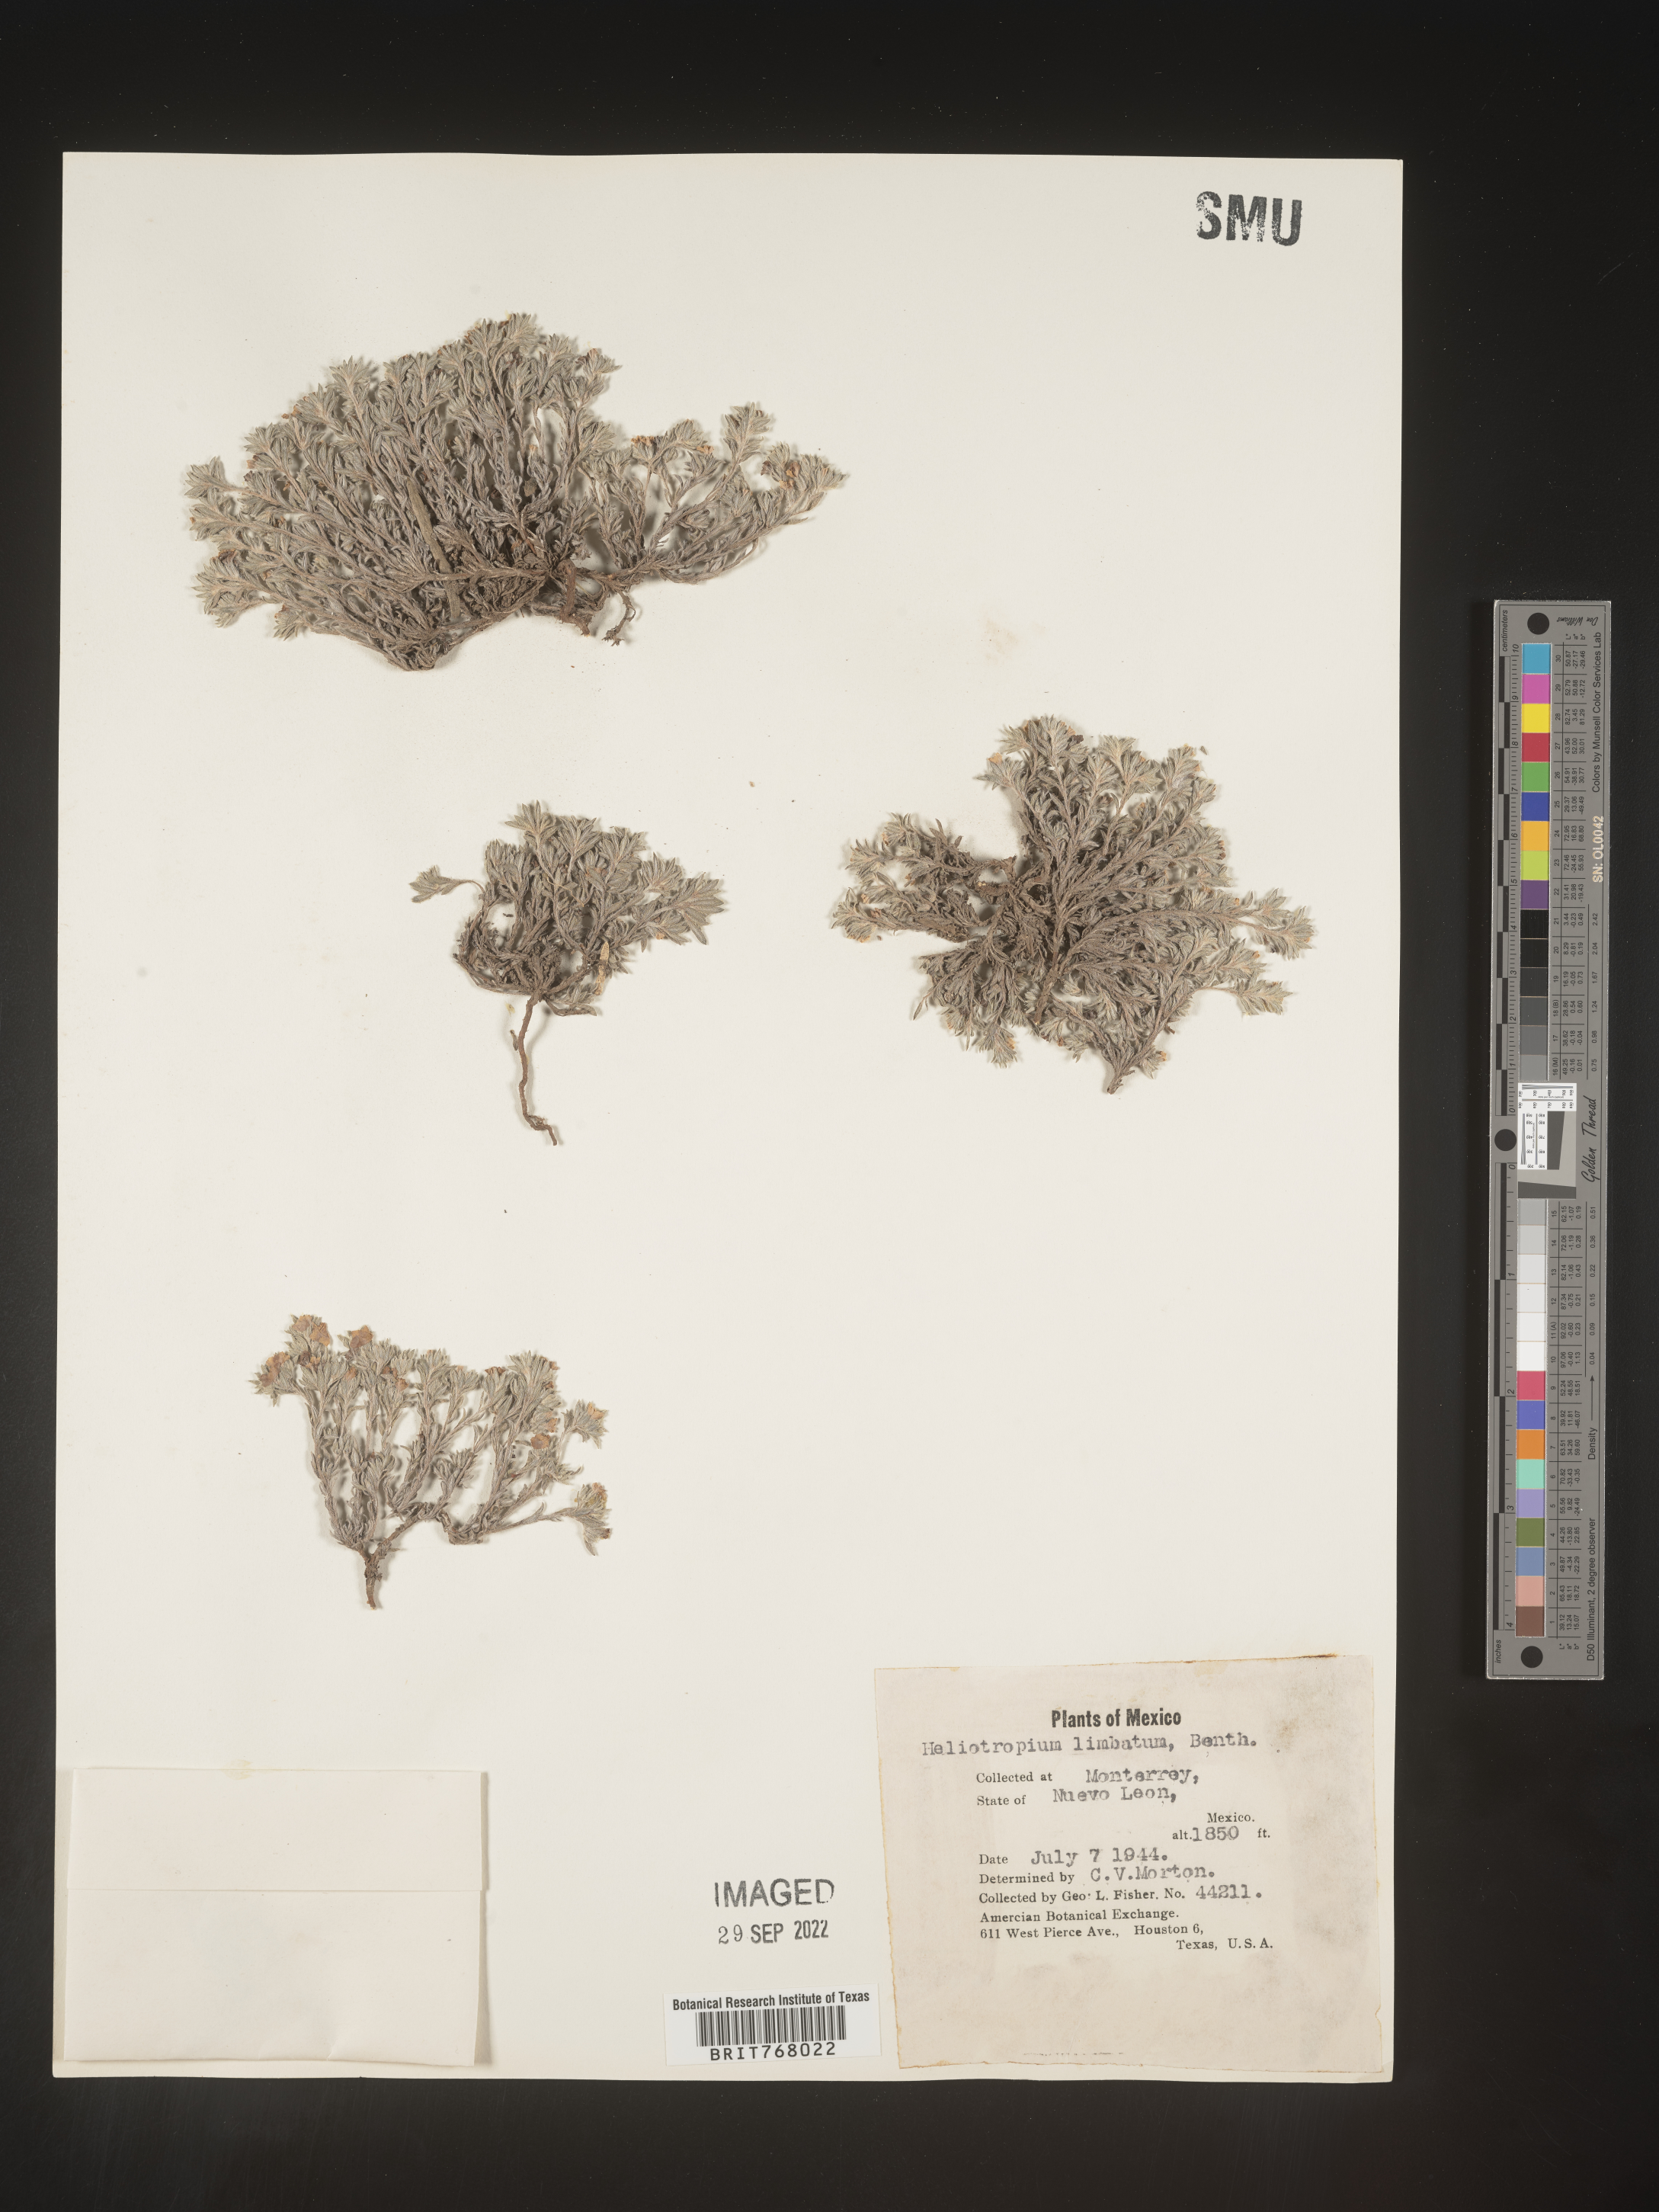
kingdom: Plantae
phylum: Tracheophyta
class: Magnoliopsida
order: Boraginales
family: Heliotropiaceae
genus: Heliotropium
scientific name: Heliotropium
